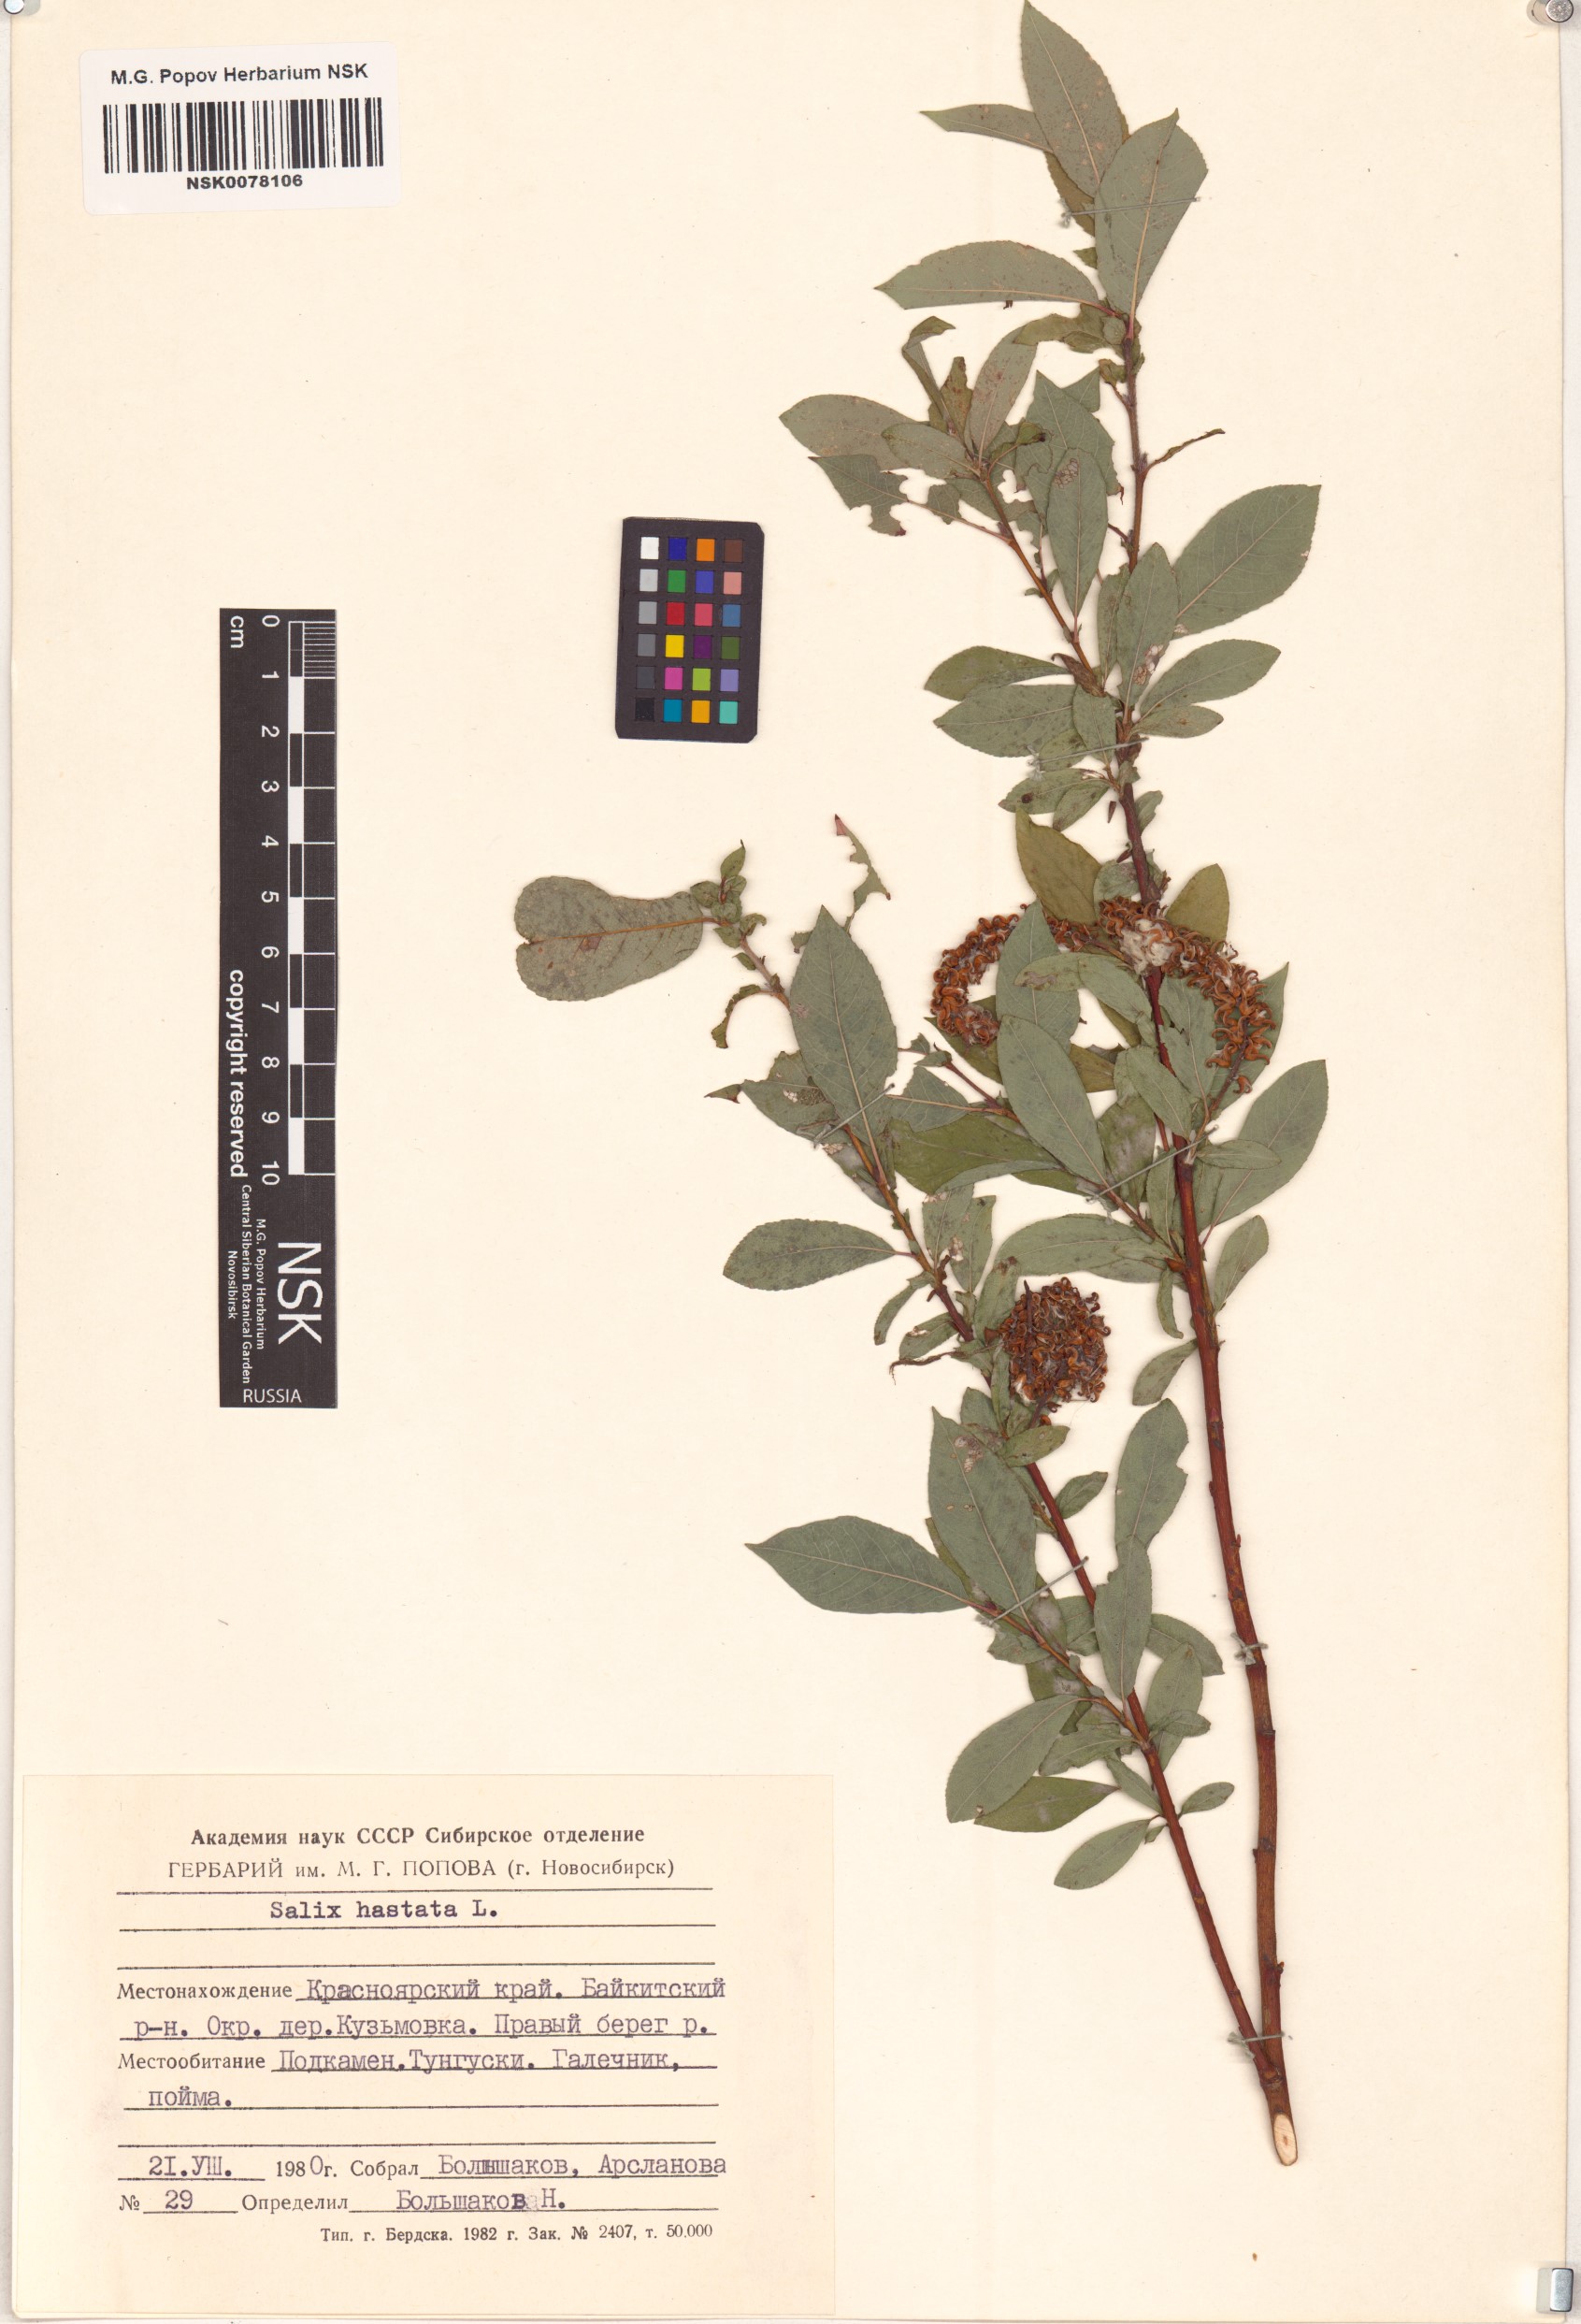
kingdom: Plantae
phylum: Tracheophyta
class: Magnoliopsida
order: Malpighiales
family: Salicaceae
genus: Salix
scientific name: Salix hastata
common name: Halberd willow
